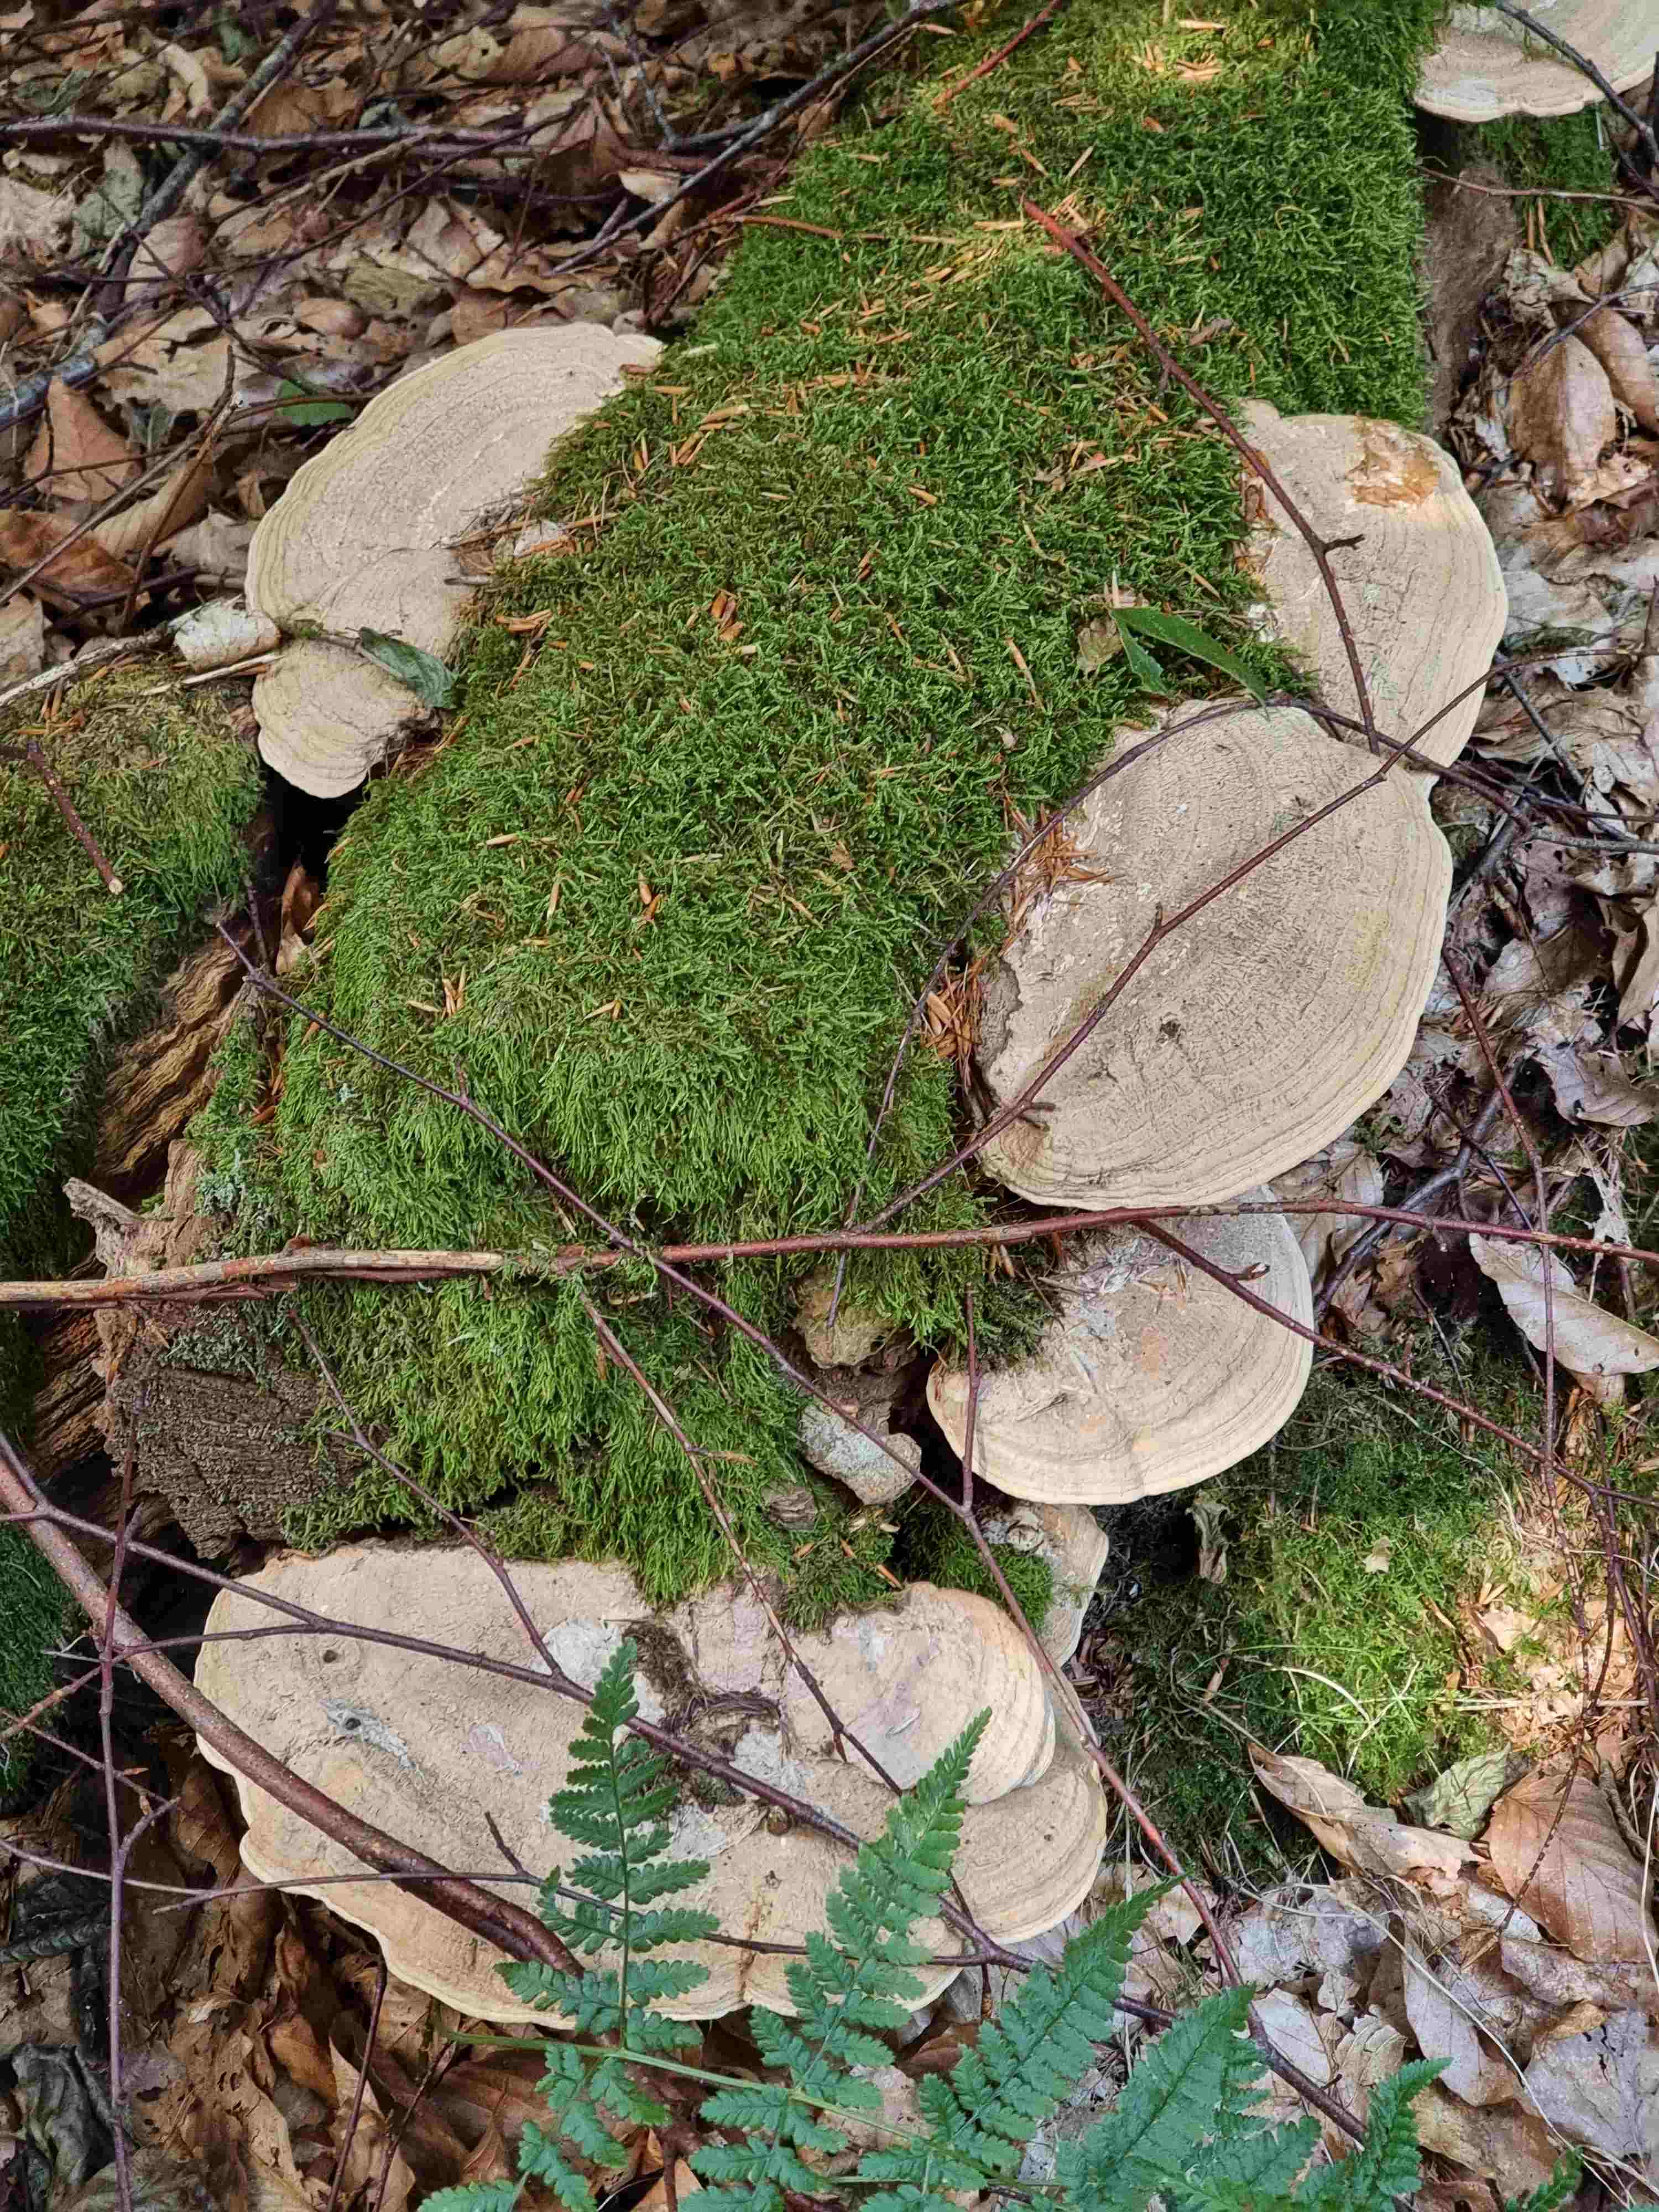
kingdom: Fungi
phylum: Basidiomycota
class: Agaricomycetes
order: Polyporales
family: Fomitopsidaceae
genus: Daedalea
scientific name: Daedalea quercina
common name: ege-labyrintsvamp
